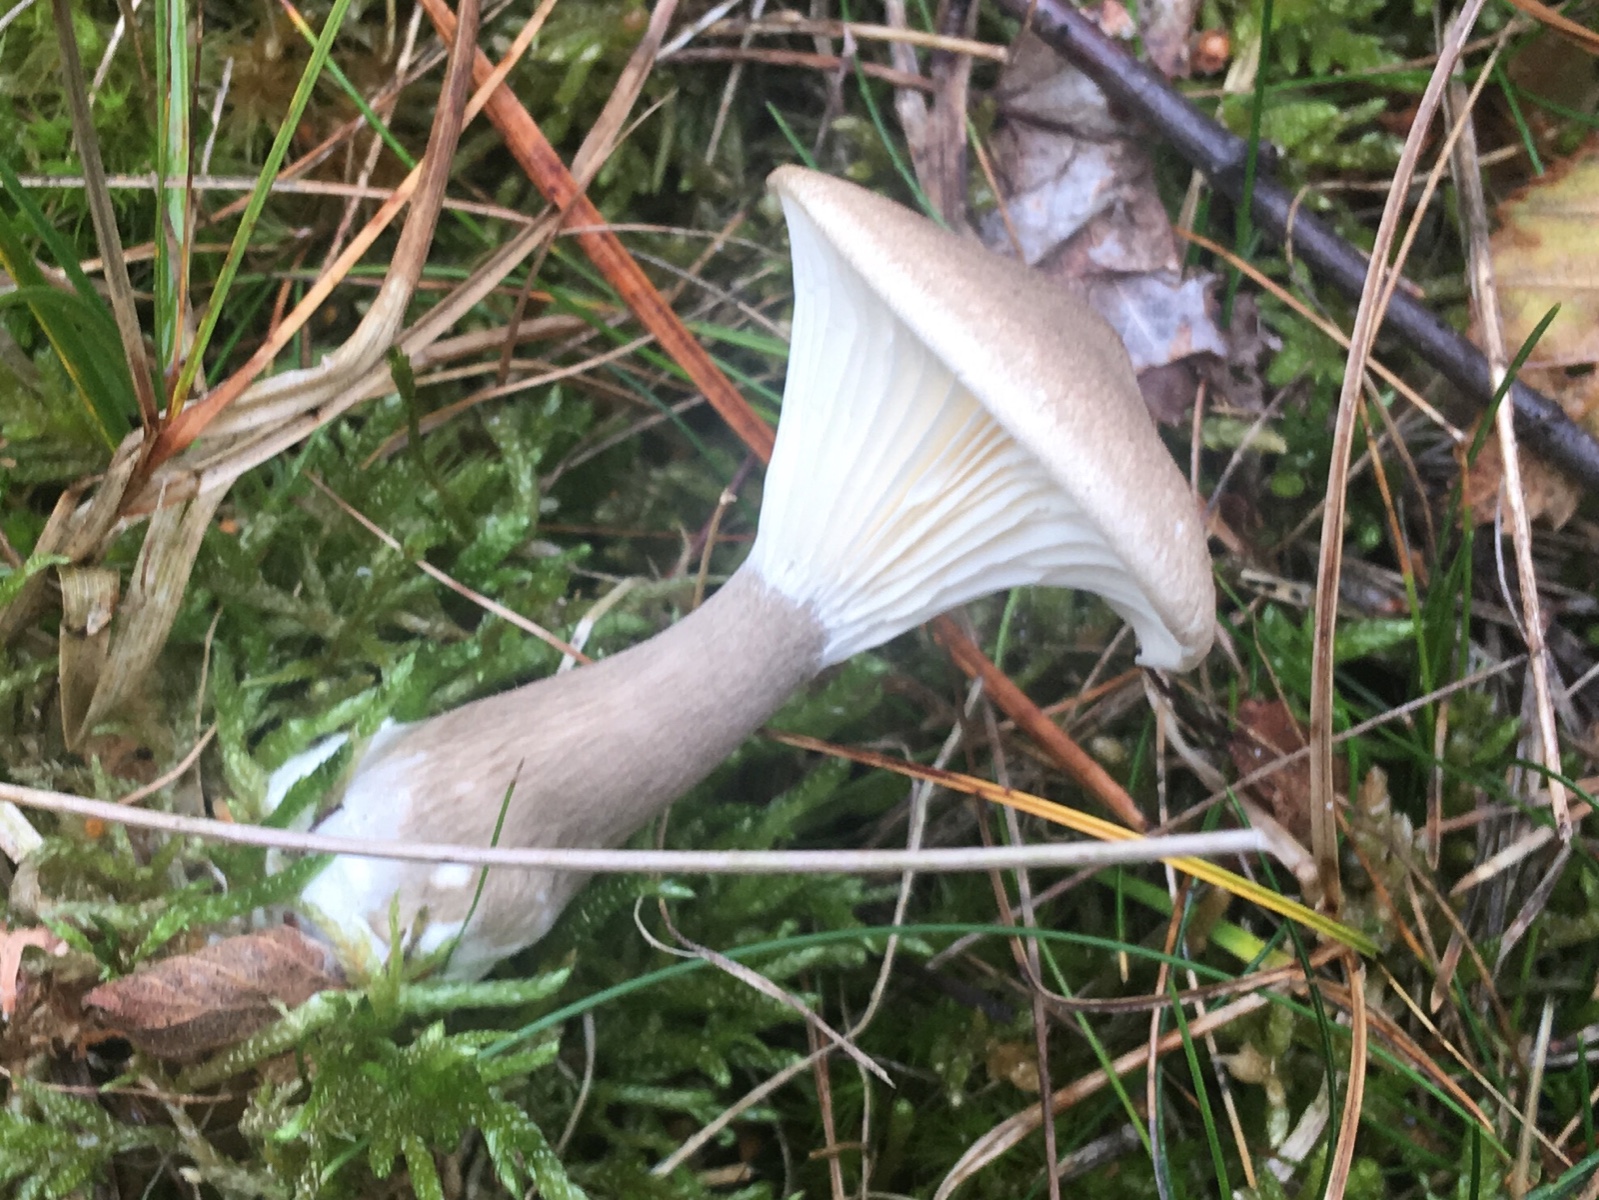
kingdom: Fungi
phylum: Basidiomycota
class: Agaricomycetes
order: Agaricales
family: Hygrophoraceae
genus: Ampulloclitocybe
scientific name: Ampulloclitocybe clavipes
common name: køllefod
